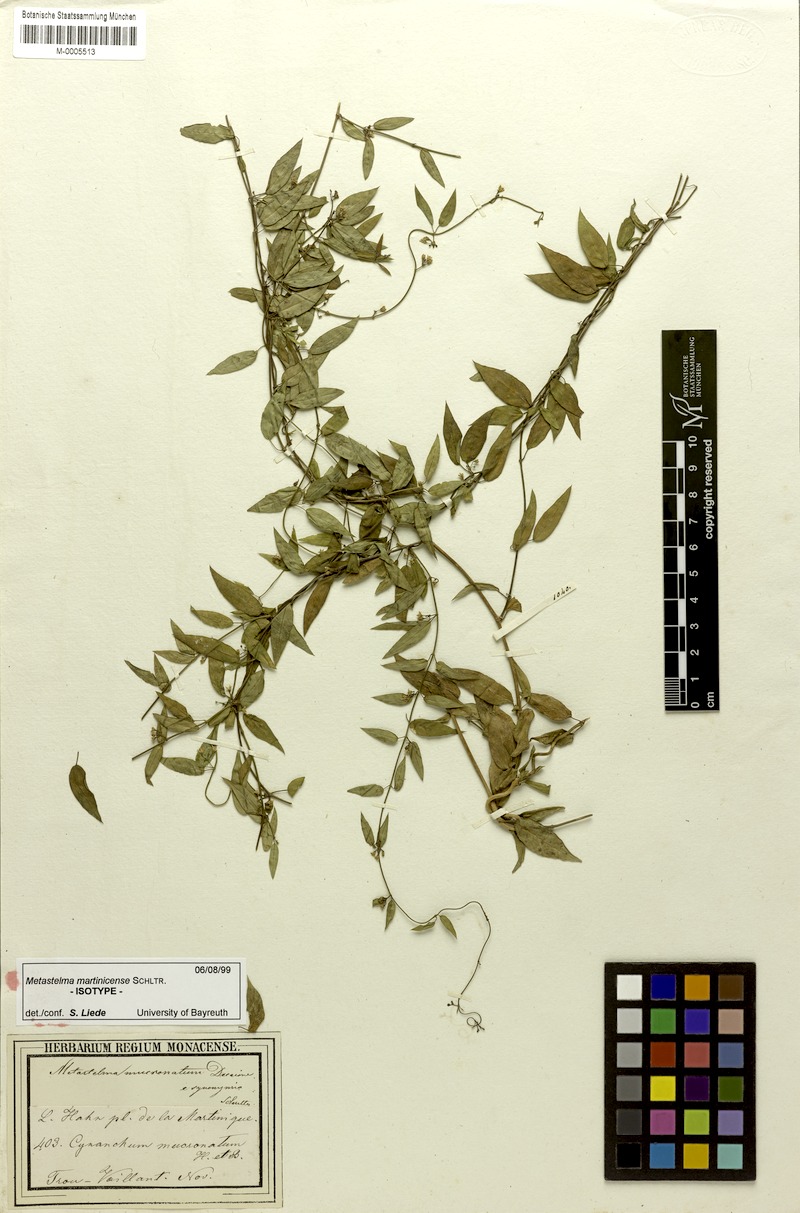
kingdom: Plantae
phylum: Tracheophyta
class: Magnoliopsida
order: Gentianales
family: Apocynaceae
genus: Metastelma
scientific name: Metastelma martinicense
